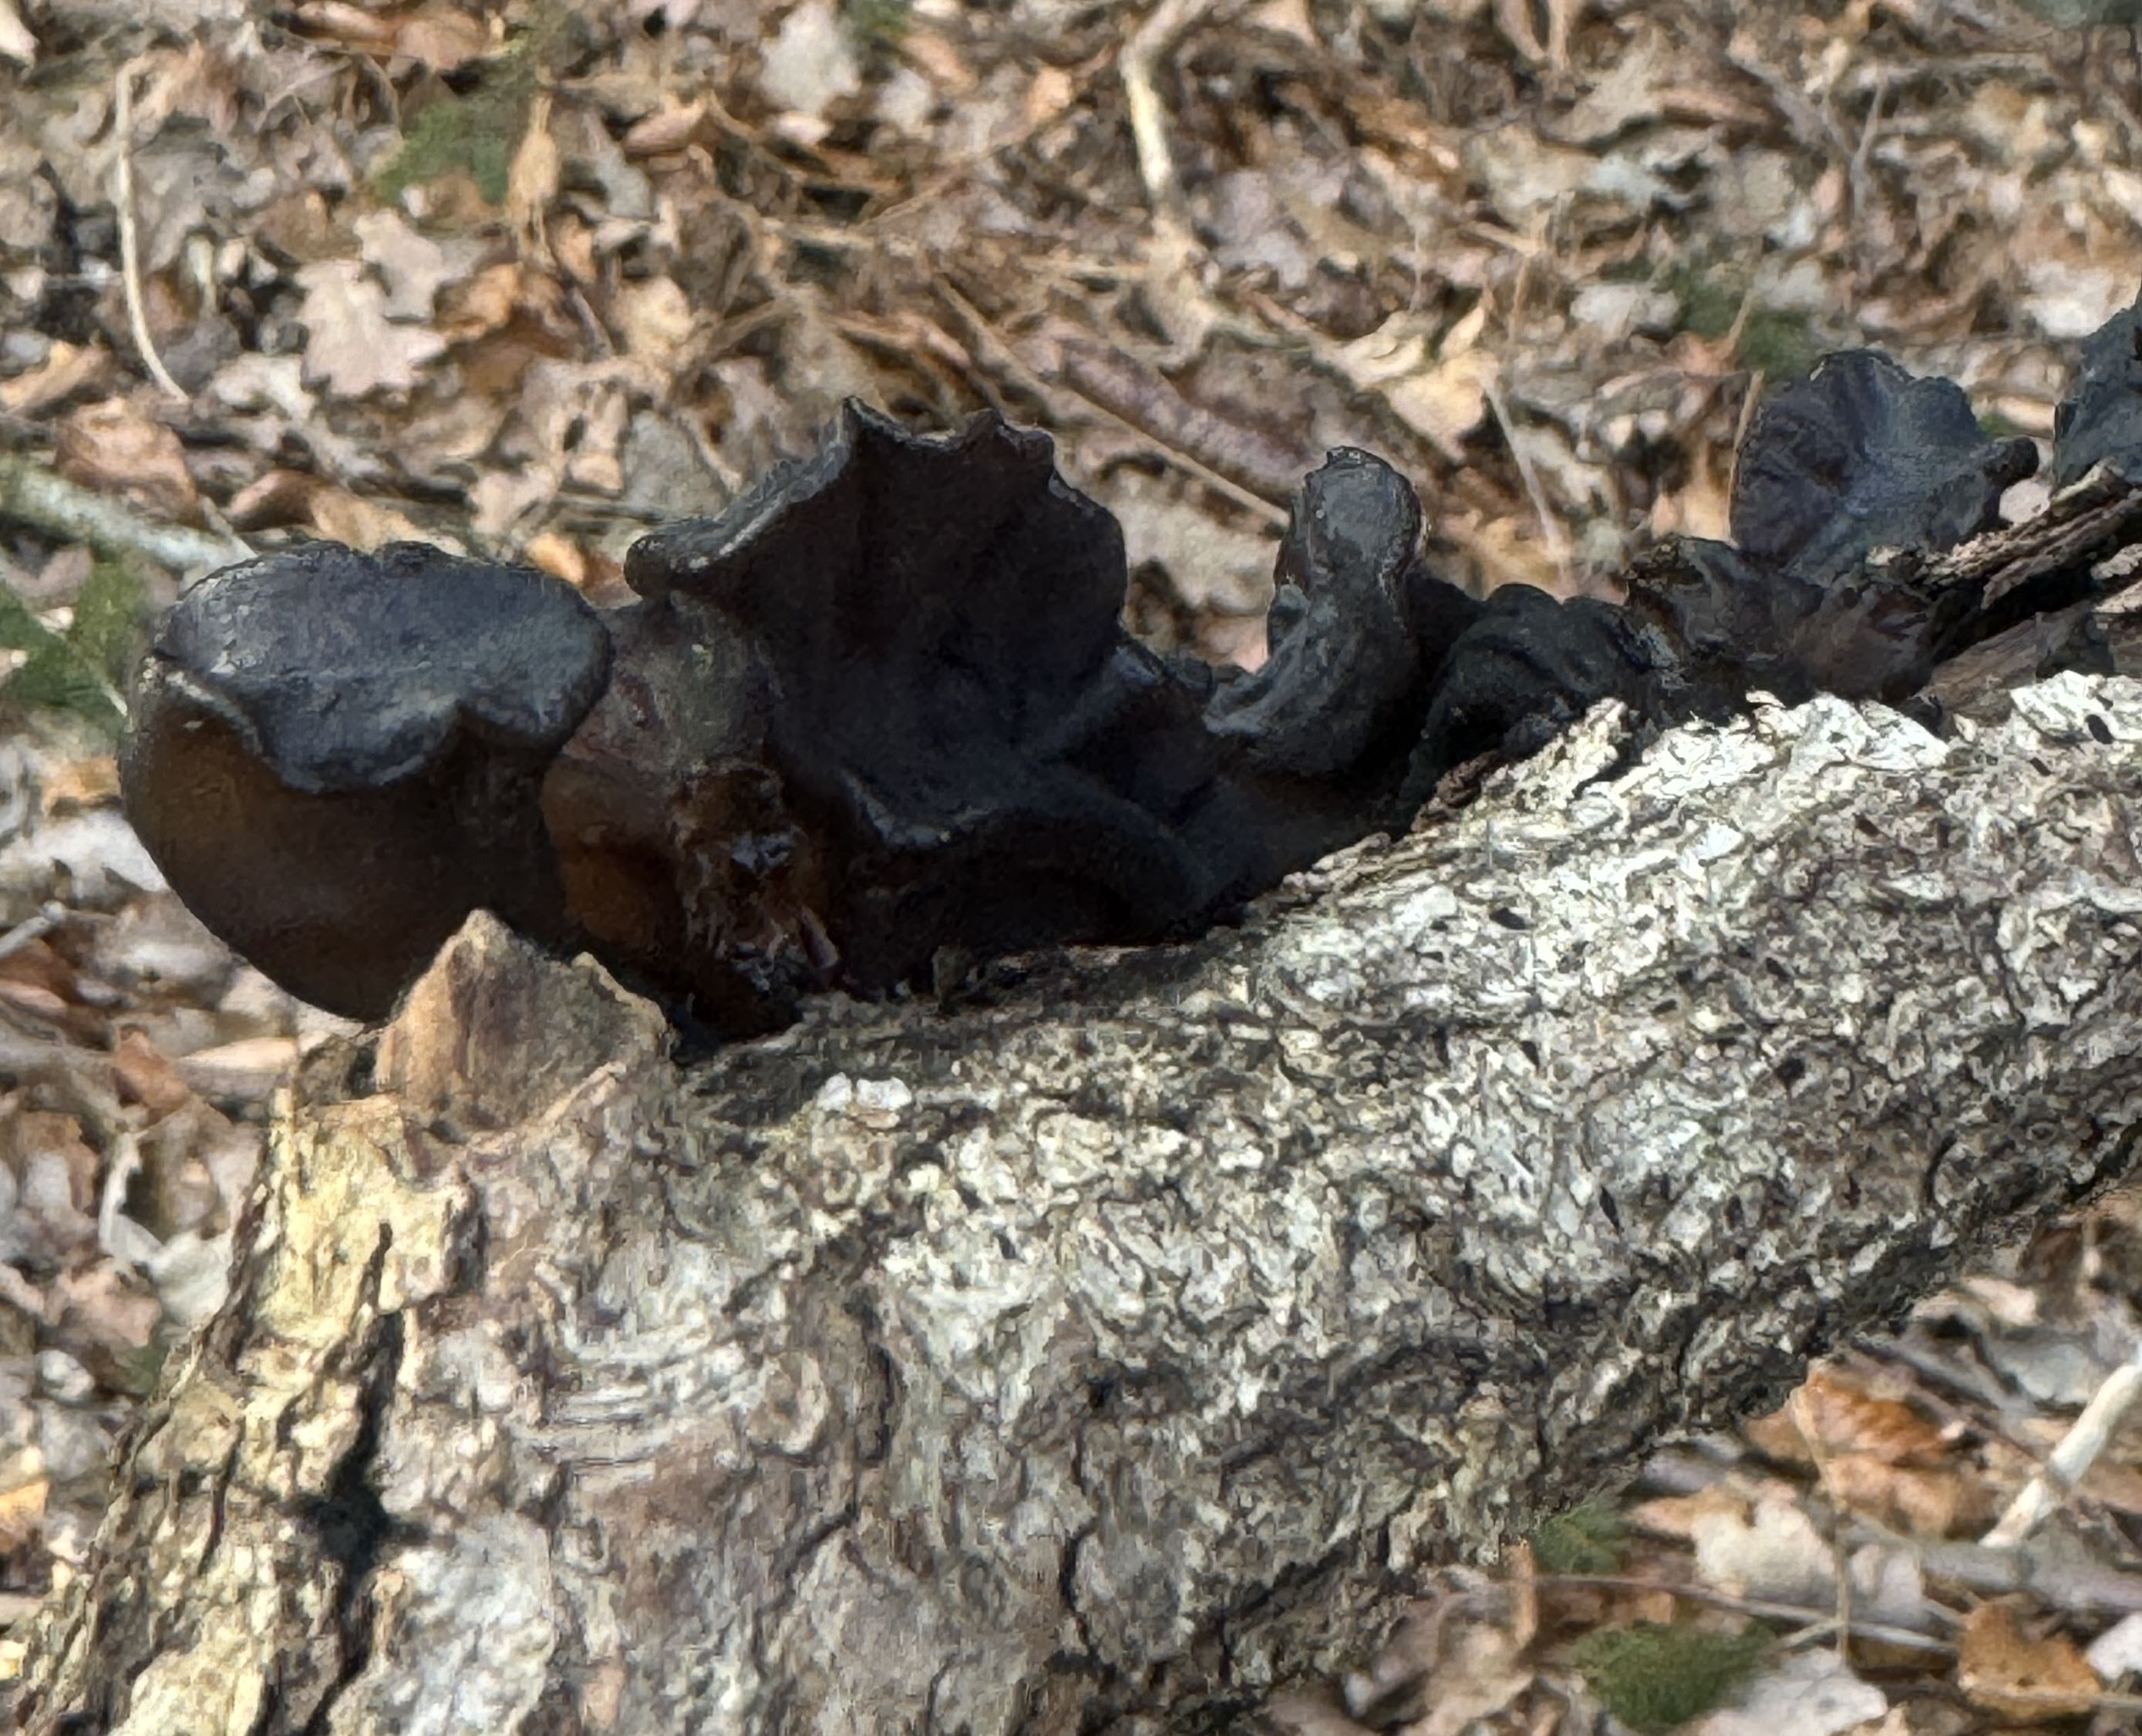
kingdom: Fungi
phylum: Basidiomycota
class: Agaricomycetes
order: Auriculariales
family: Auriculariaceae
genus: Exidia
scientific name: Exidia glandulosa
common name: ege-bævretop
